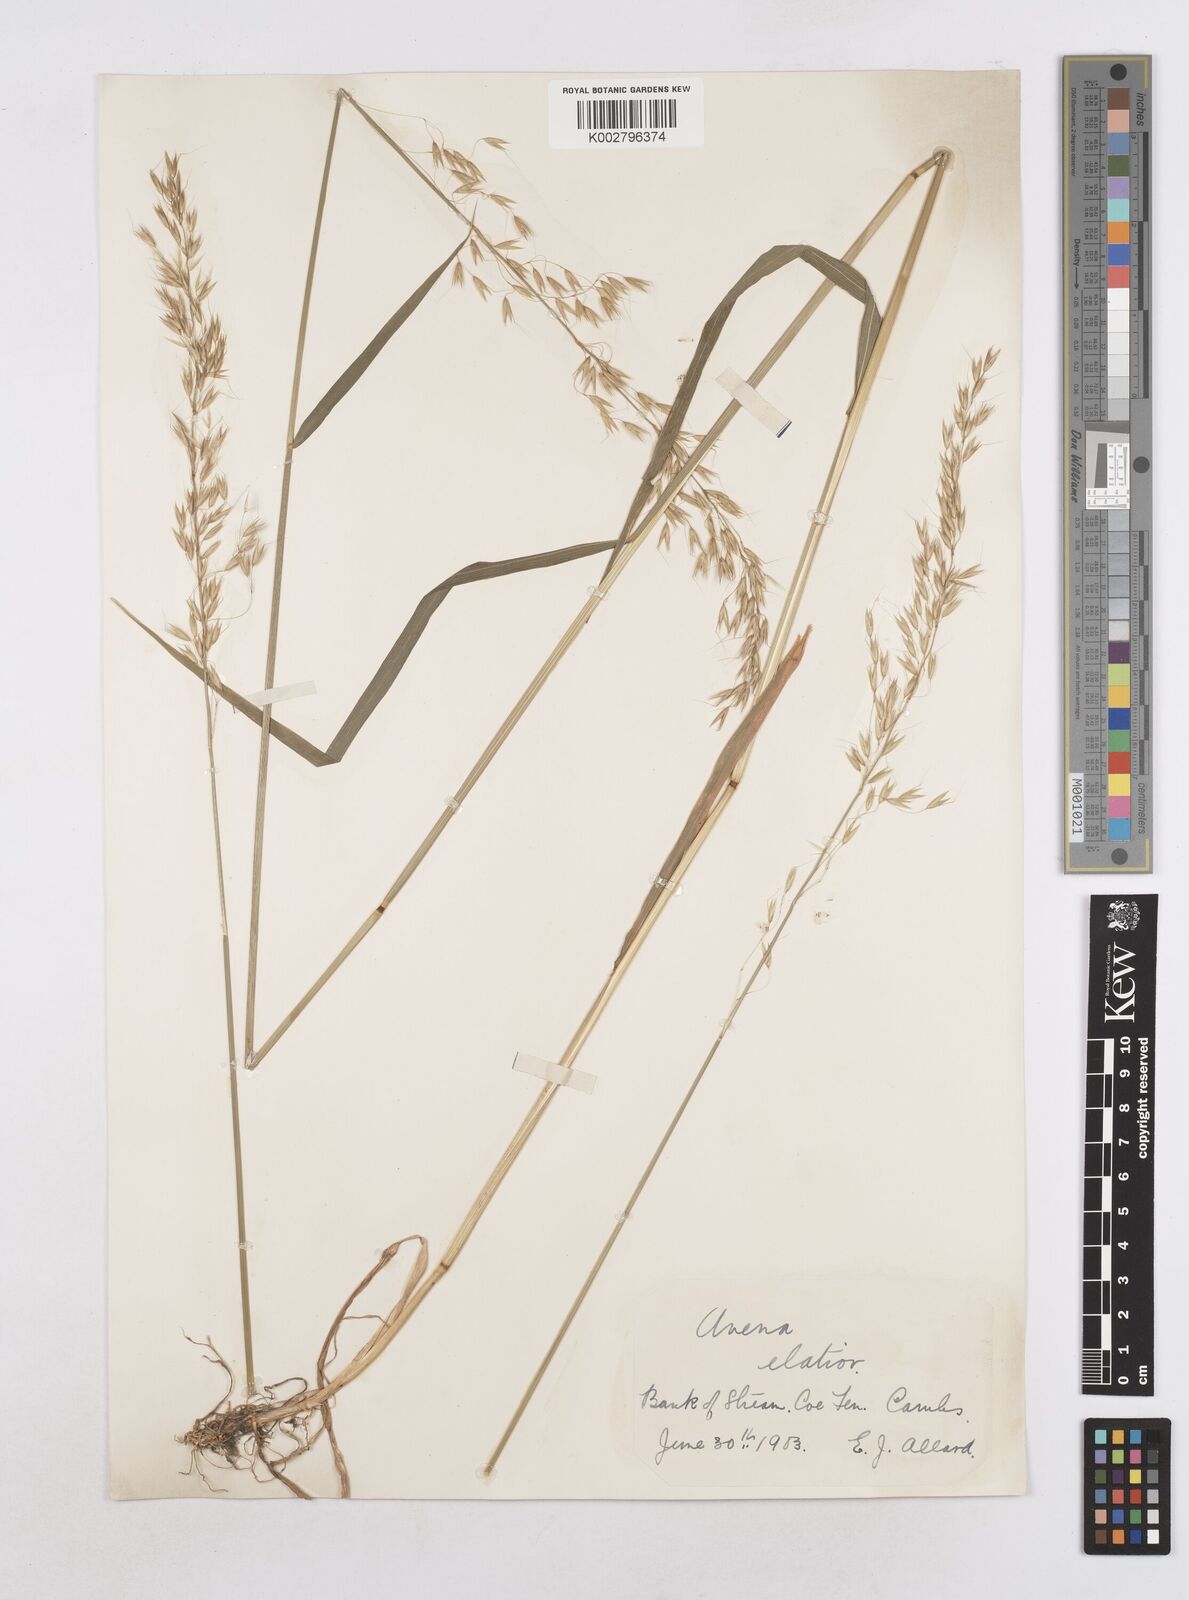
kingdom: Plantae
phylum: Tracheophyta
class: Liliopsida
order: Poales
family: Poaceae
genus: Arrhenatherum
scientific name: Arrhenatherum elatius
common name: Tall oatgrass
